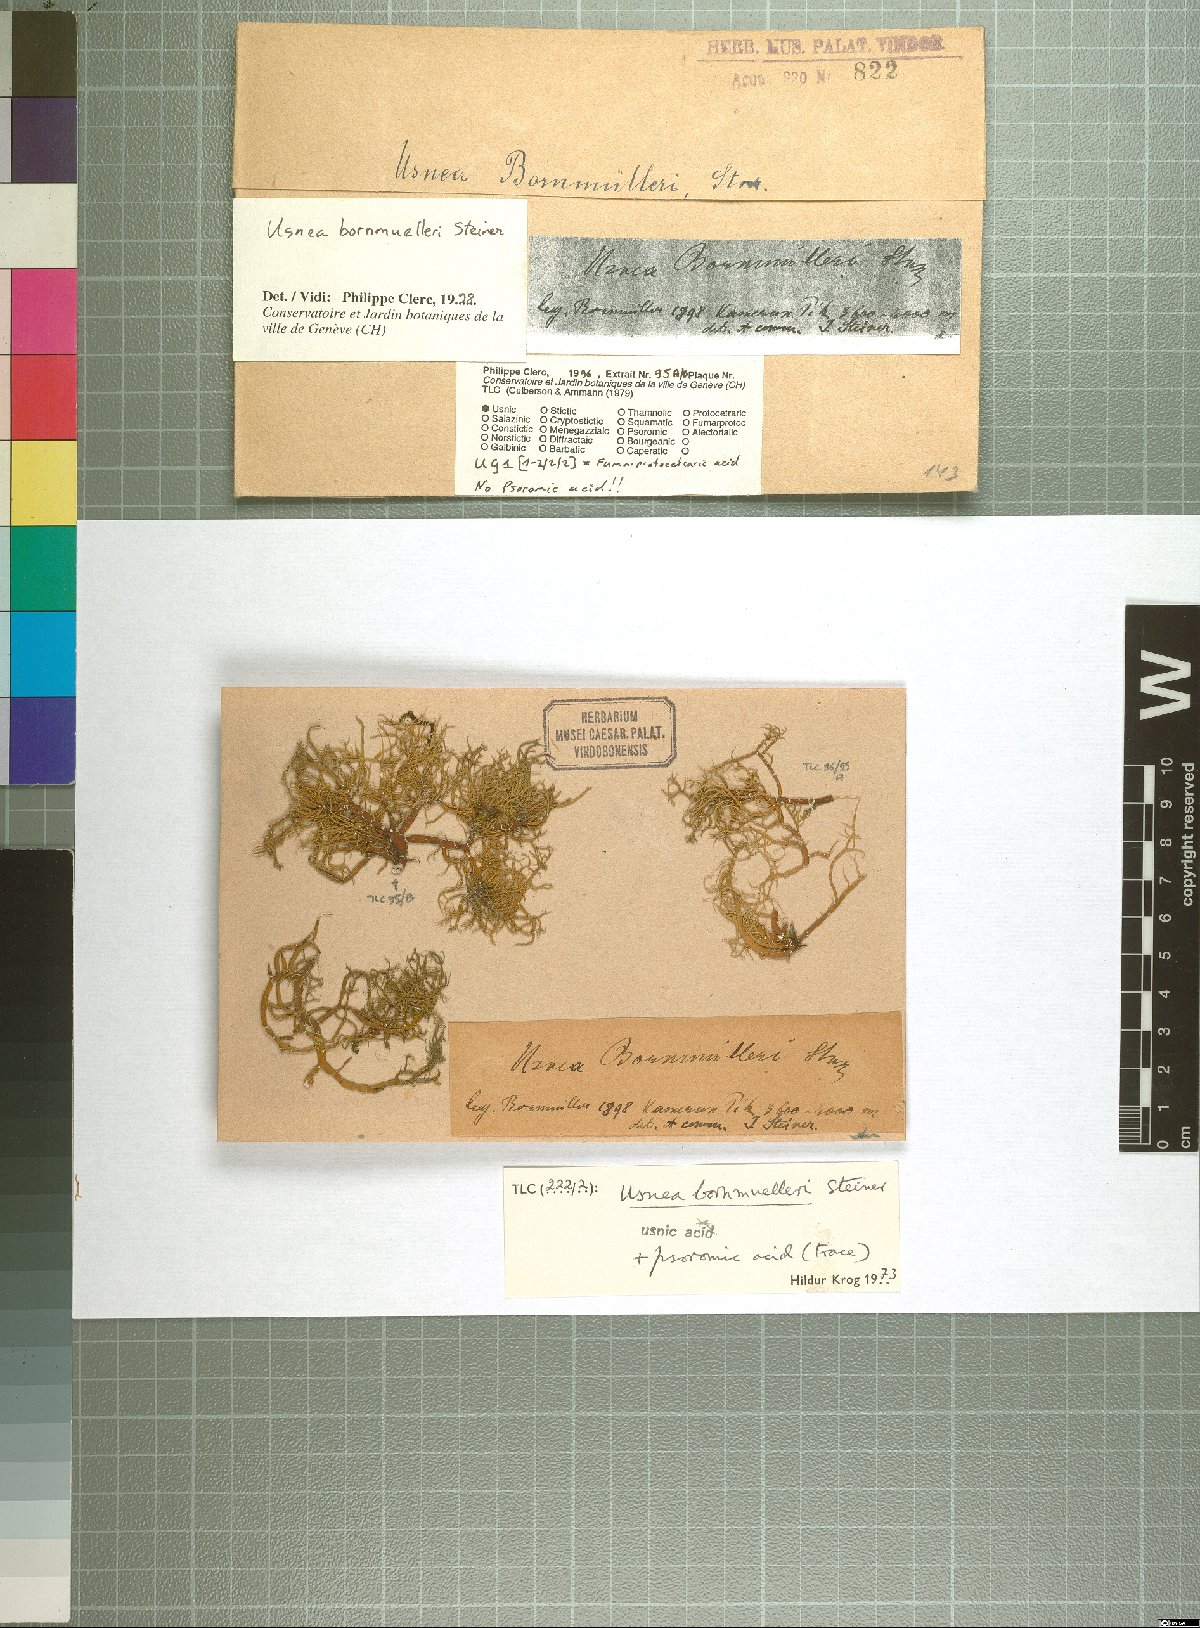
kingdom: Fungi
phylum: Ascomycota
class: Lecanoromycetes
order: Lecanorales
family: Parmeliaceae
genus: Usnea
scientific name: Usnea
